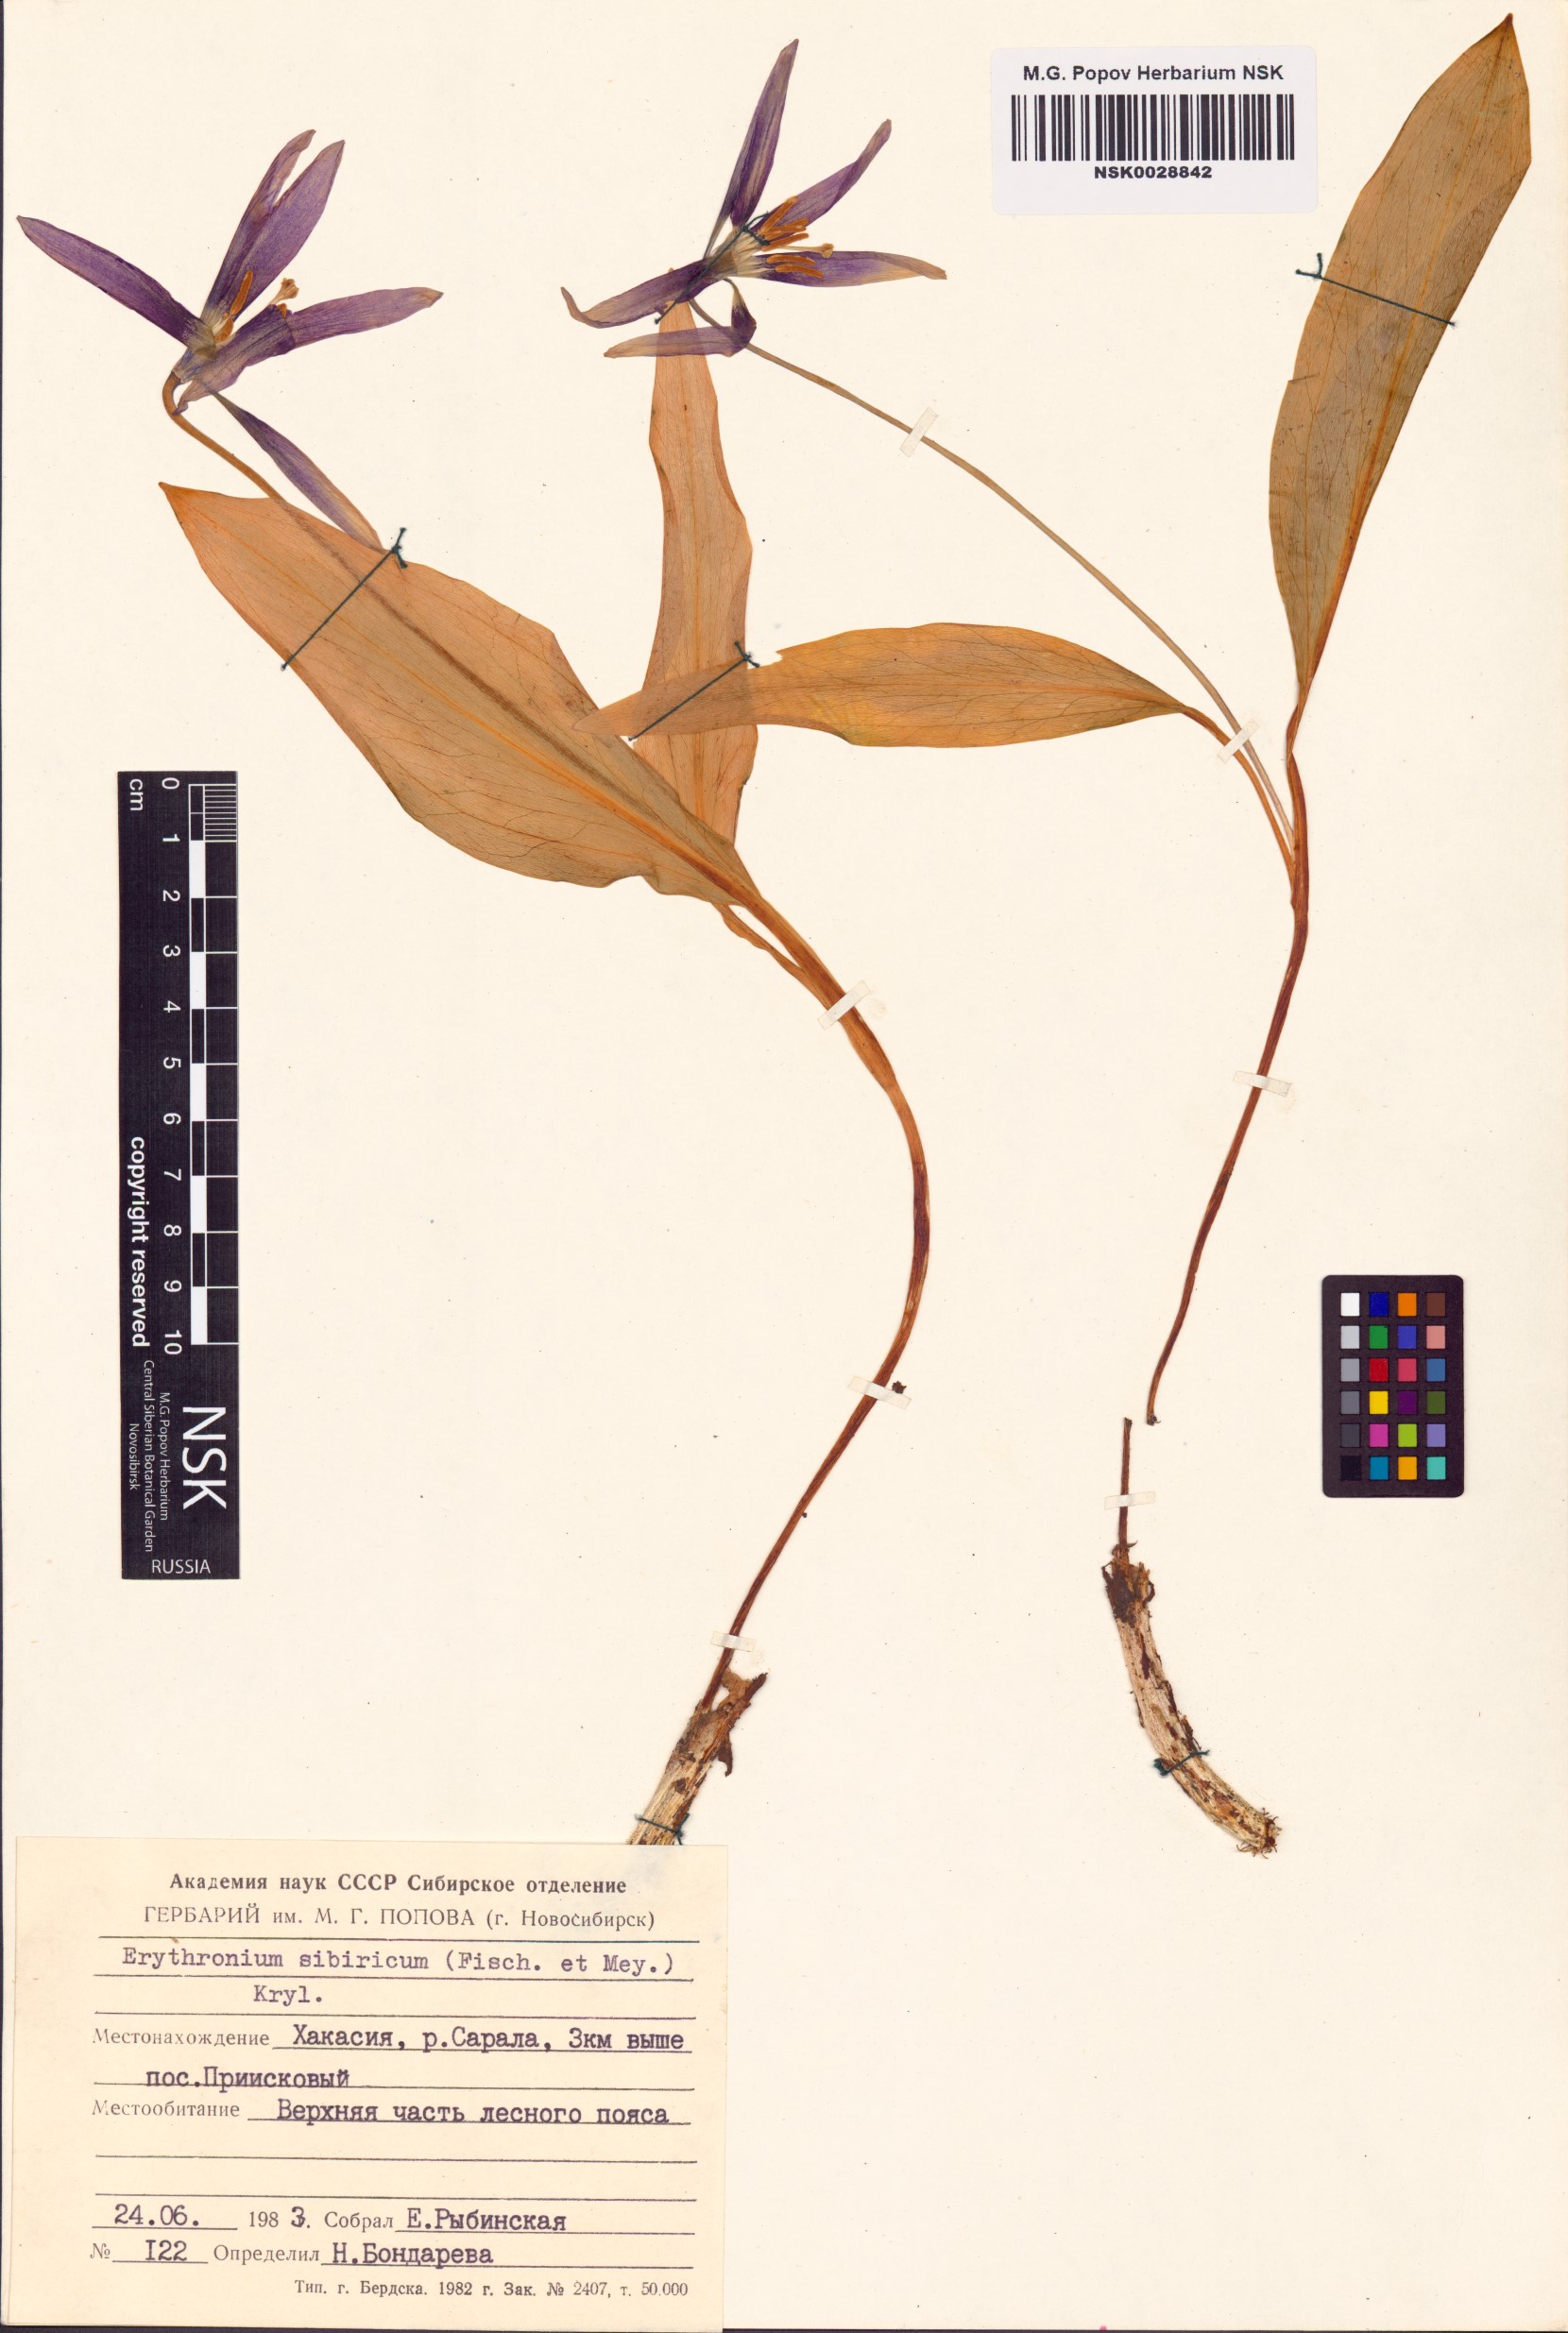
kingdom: Plantae
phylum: Tracheophyta
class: Liliopsida
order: Liliales
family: Liliaceae
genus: Erythronium
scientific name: Erythronium sibiricum
